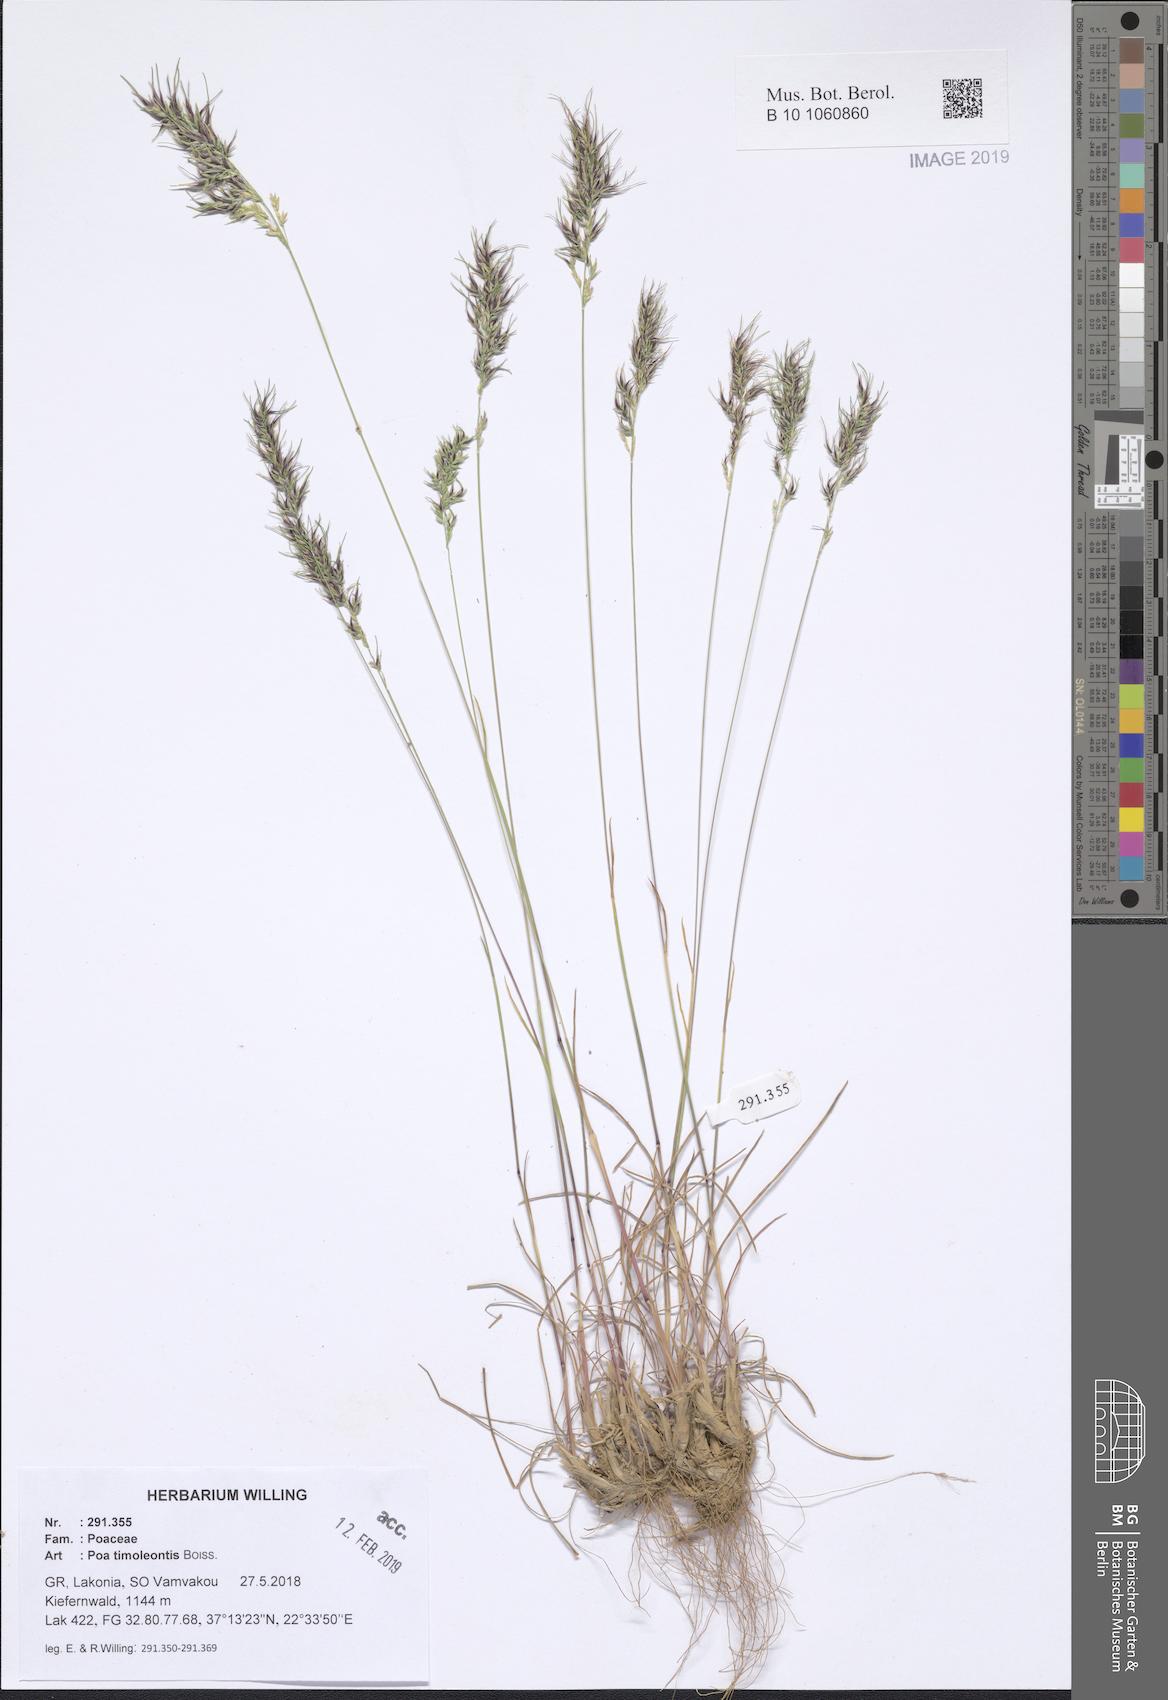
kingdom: Plantae
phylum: Tracheophyta
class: Liliopsida
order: Poales
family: Poaceae
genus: Poa
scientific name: Poa timoleontis
